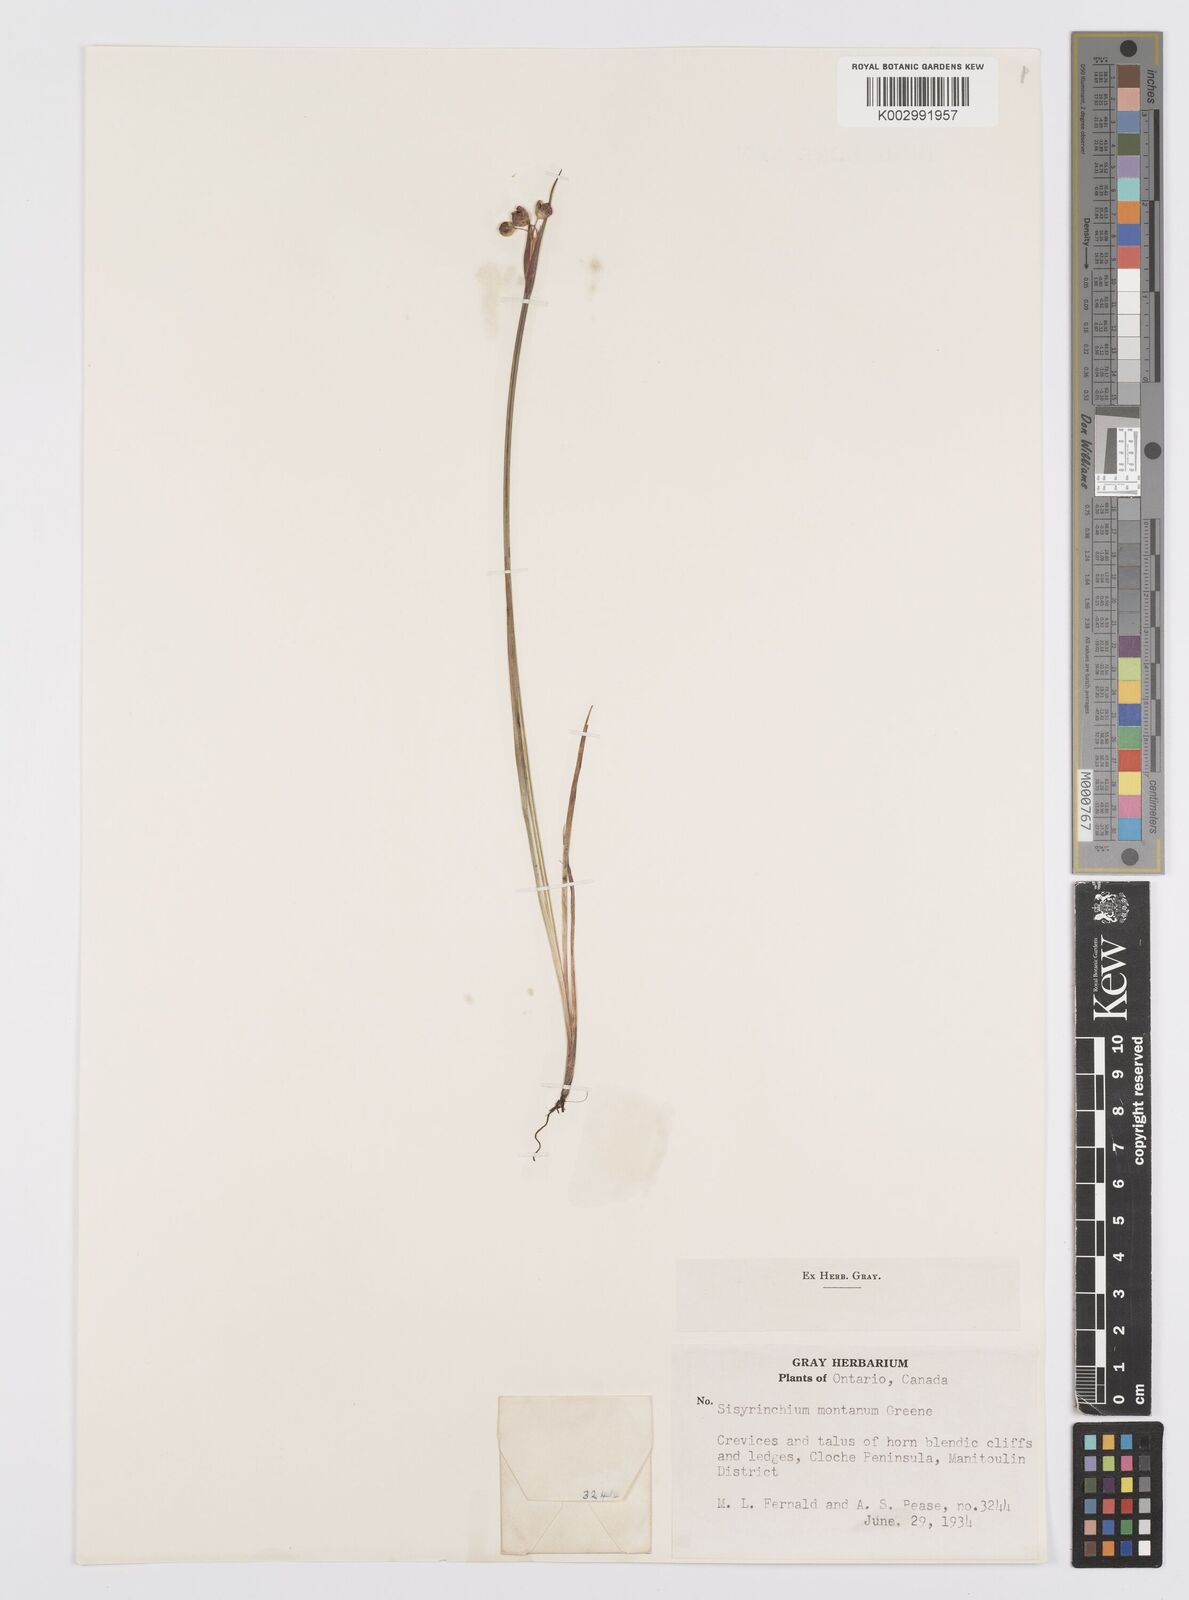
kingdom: Plantae
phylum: Tracheophyta
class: Liliopsida
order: Asparagales
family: Iridaceae
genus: Sisyrinchium
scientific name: Sisyrinchium montanum
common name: American blue-eyed-grass
